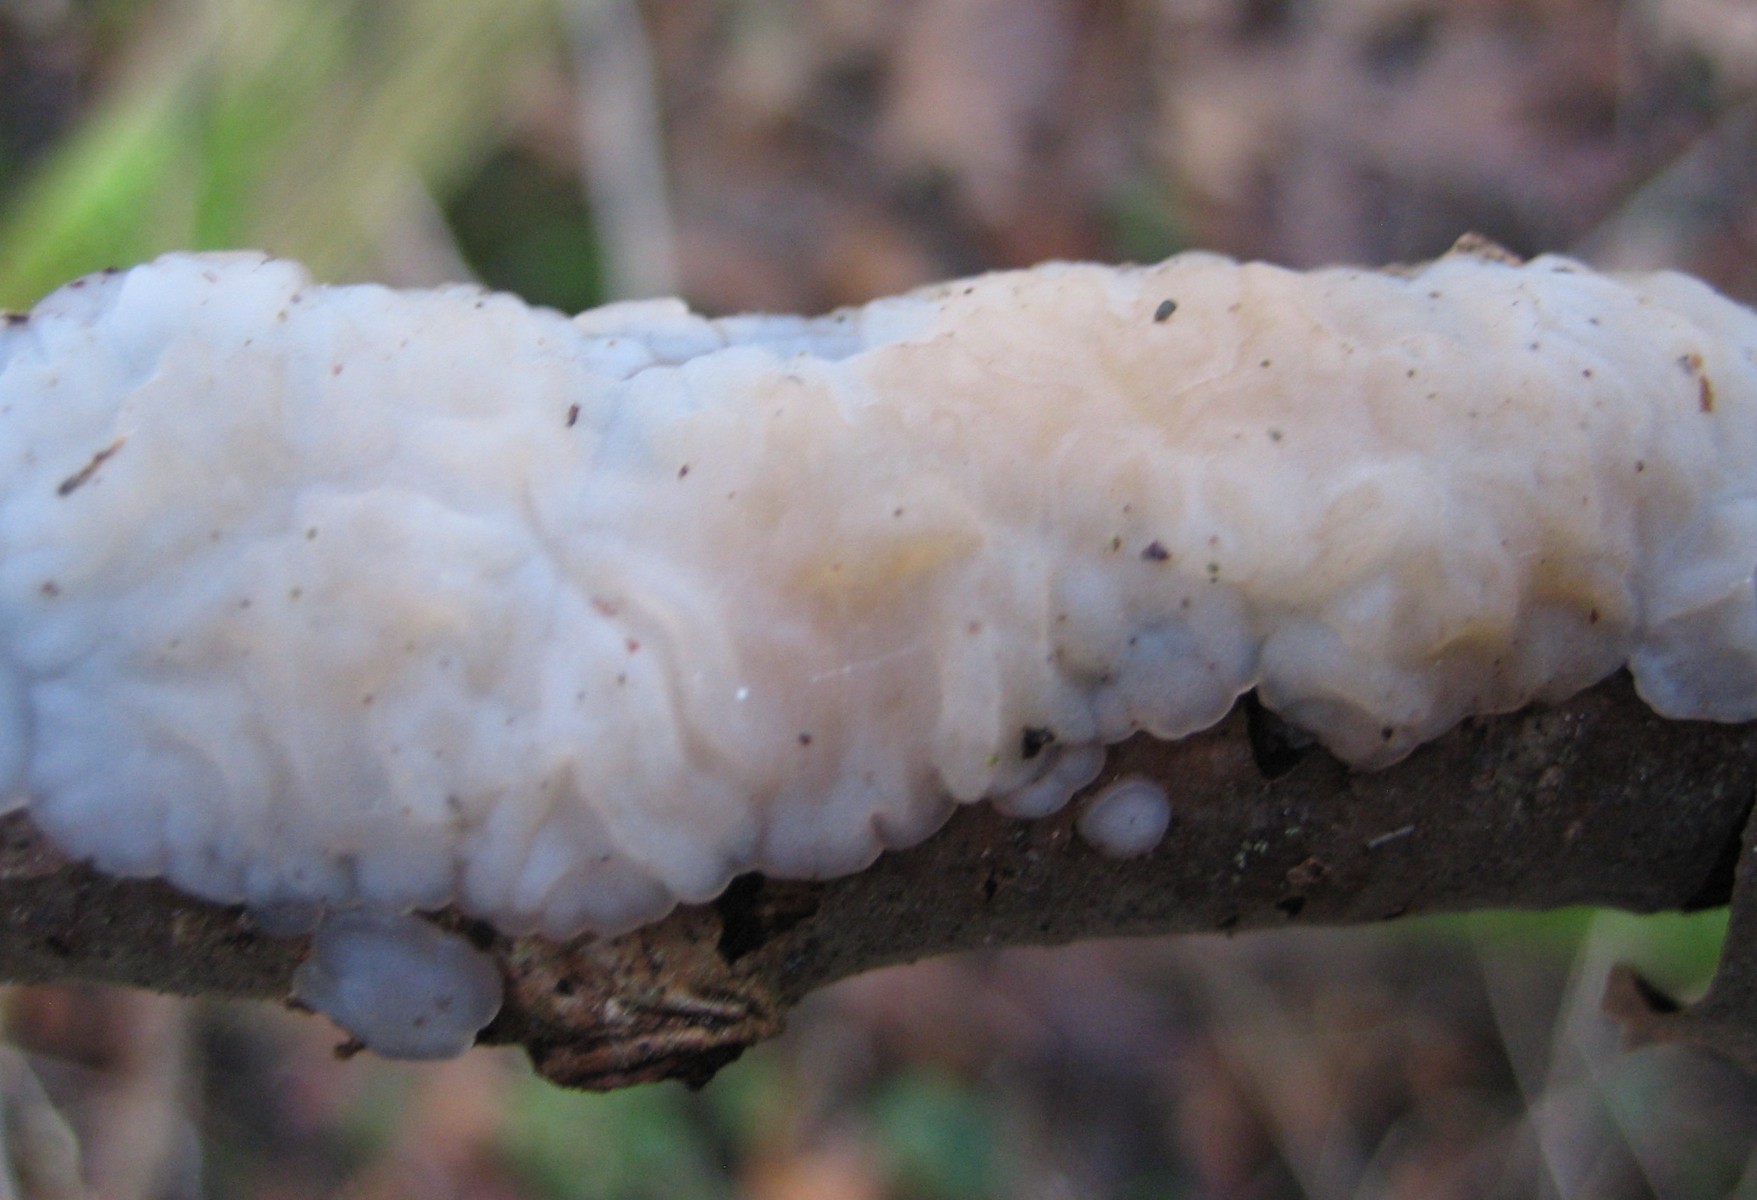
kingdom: Fungi
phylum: Basidiomycota
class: Agaricomycetes
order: Auriculariales
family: Auriculariaceae
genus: Exidia
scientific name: Exidia thuretiana
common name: hvidlig bævretop
